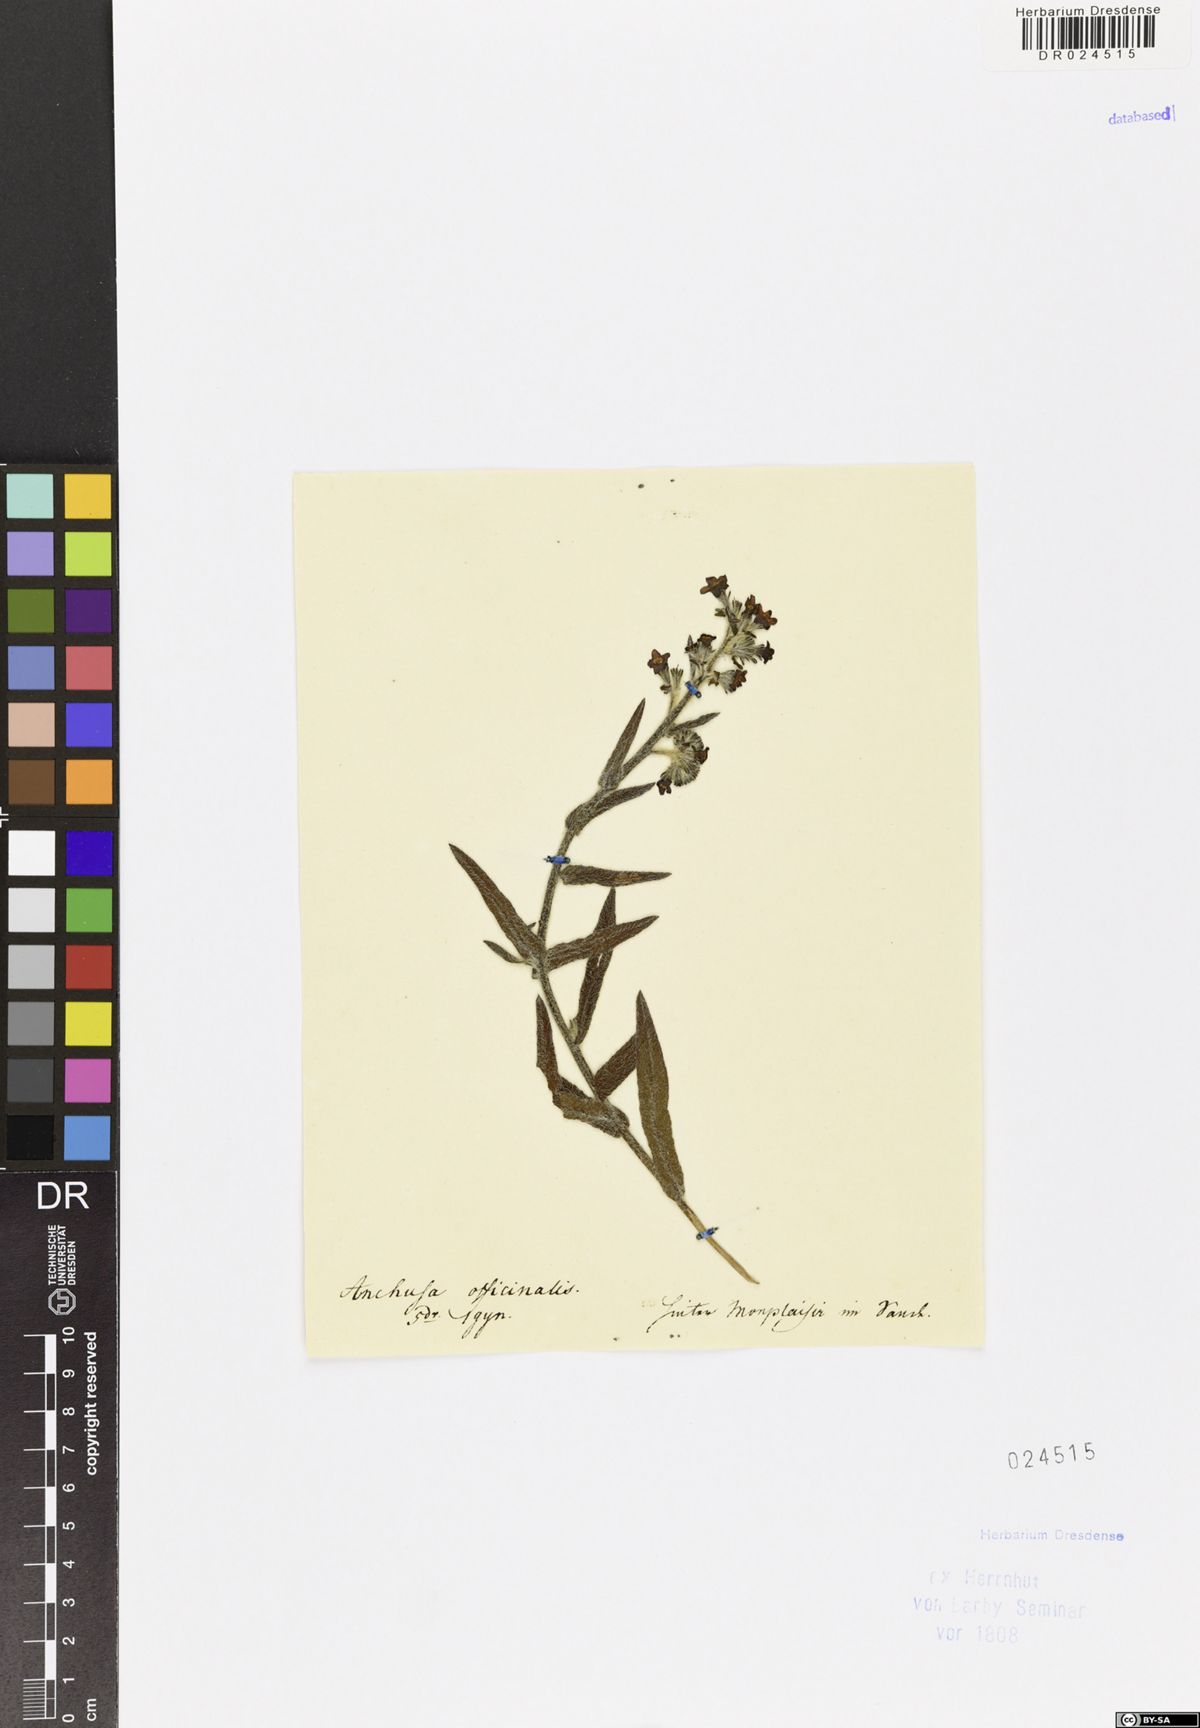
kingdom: Plantae
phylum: Tracheophyta
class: Magnoliopsida
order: Boraginales
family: Boraginaceae
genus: Anchusa
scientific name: Anchusa officinalis
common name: Alkanet
